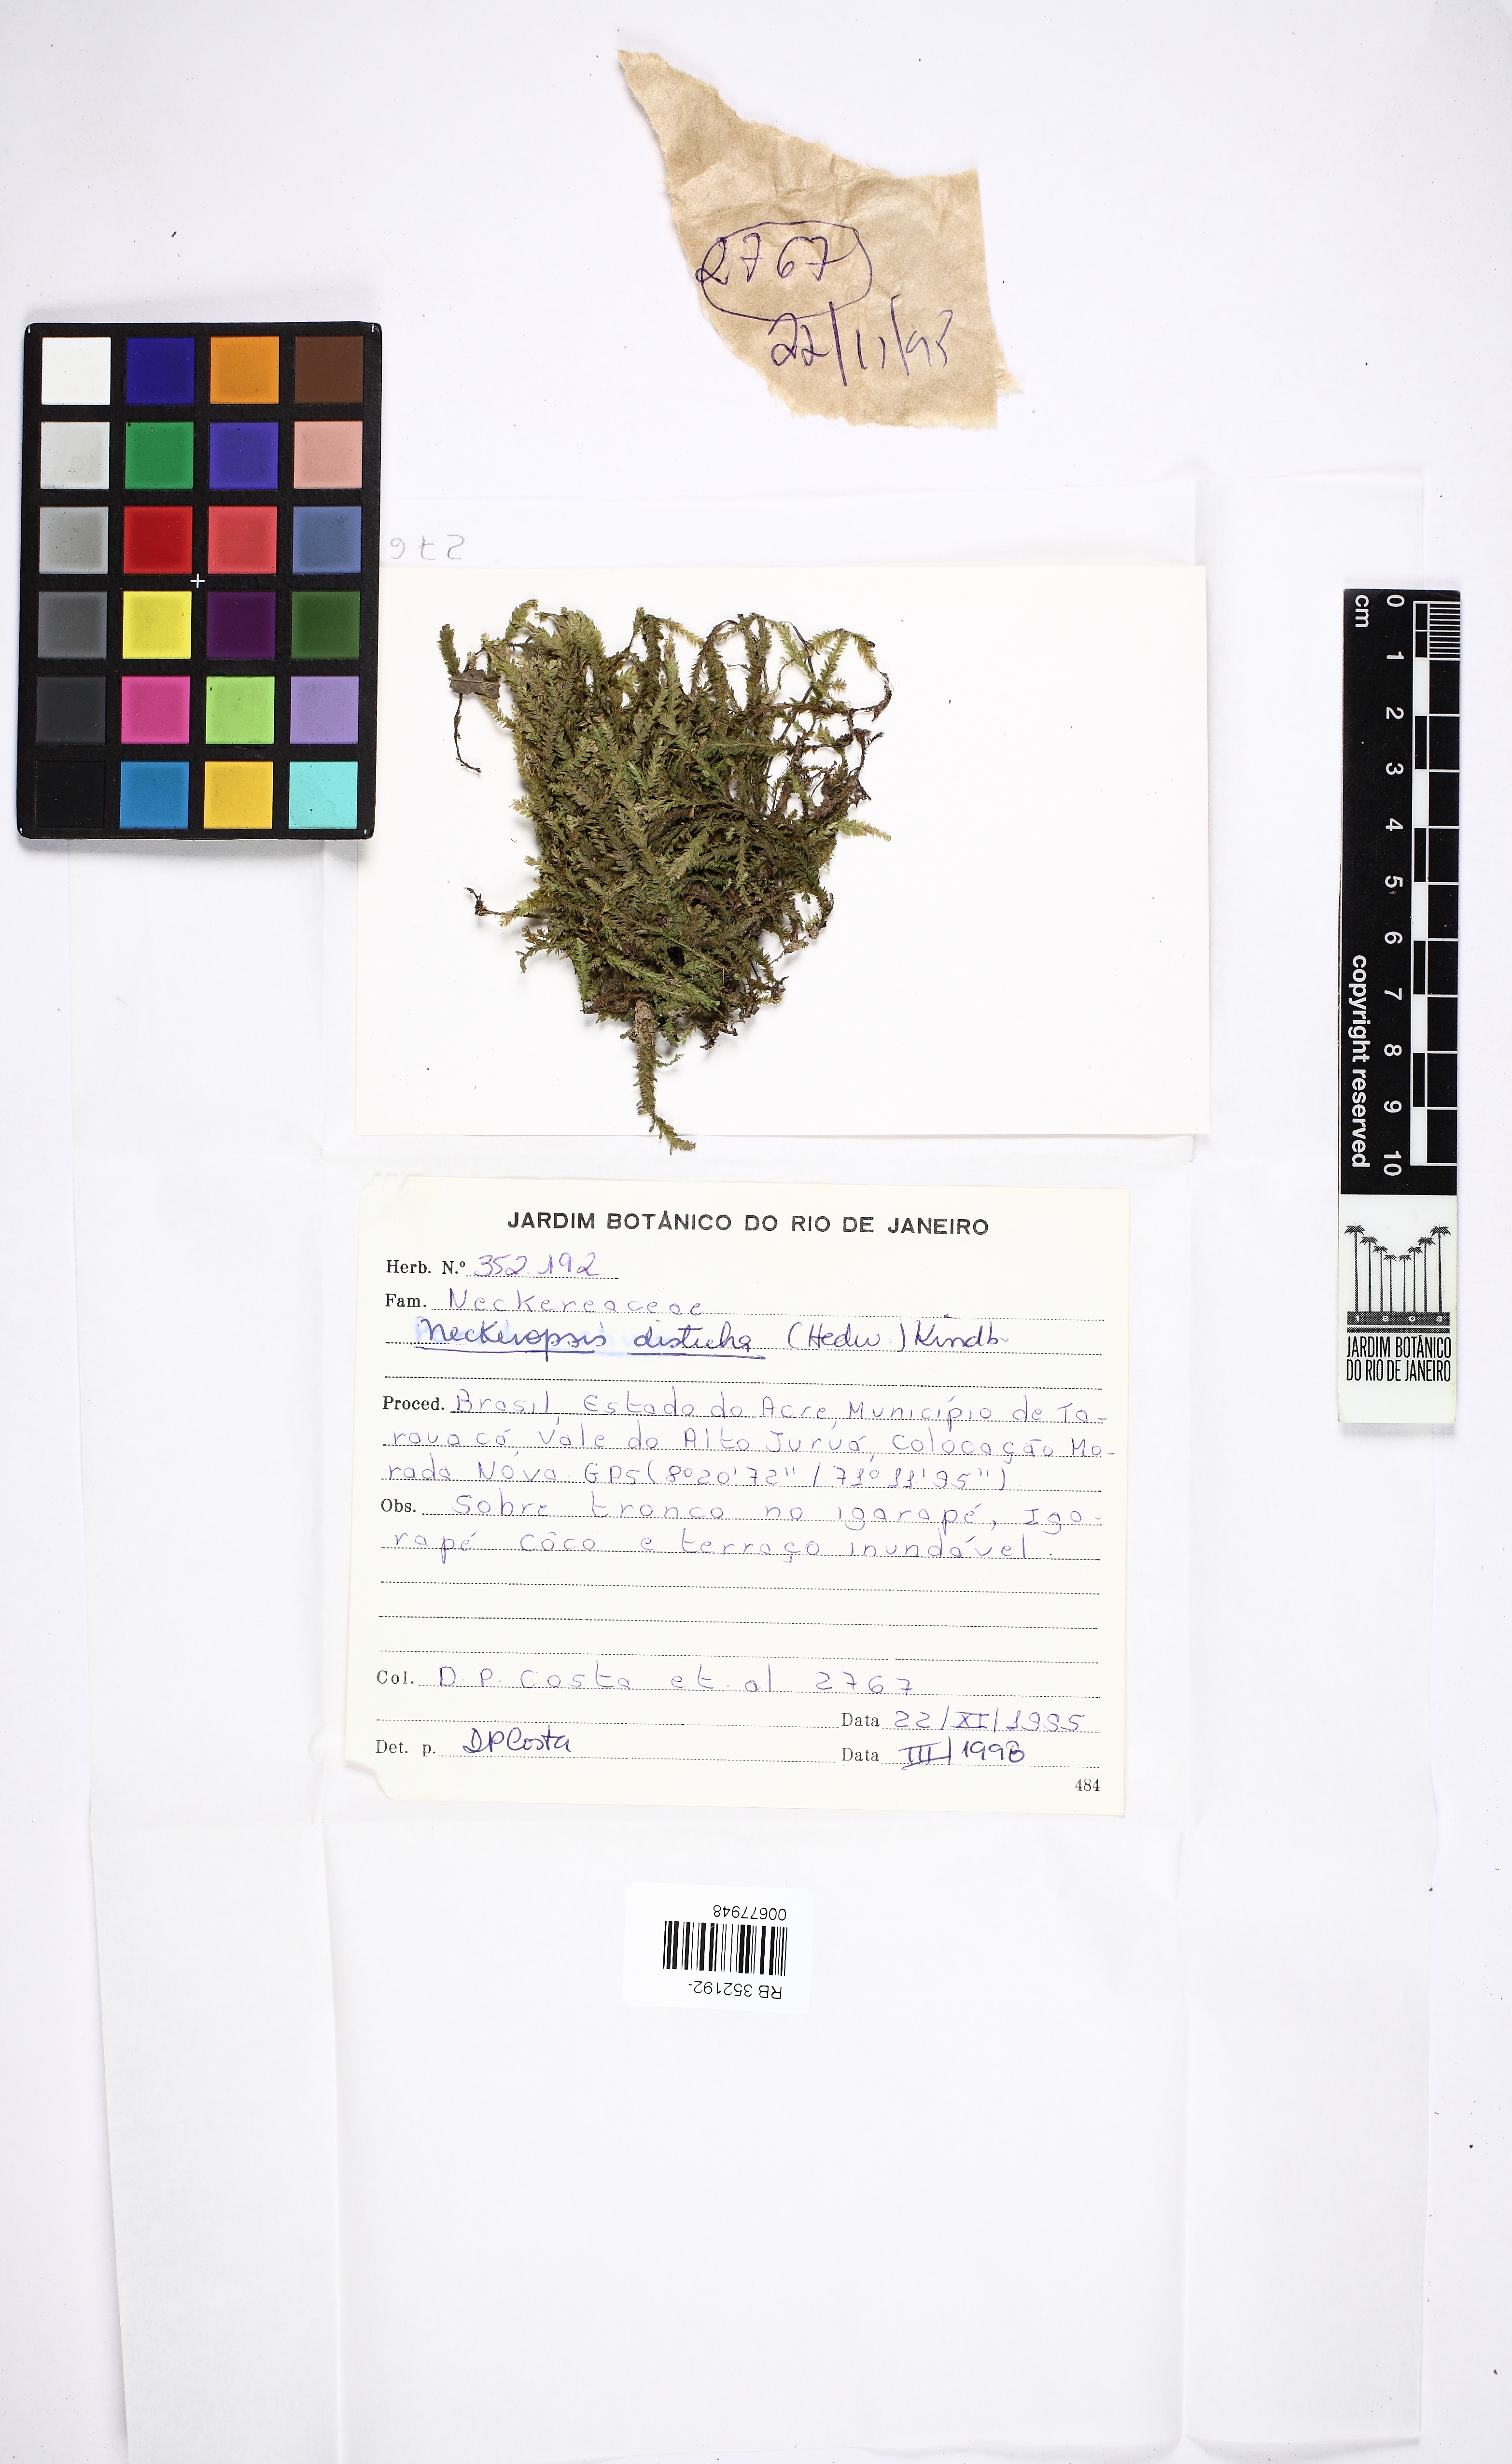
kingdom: Plantae
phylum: Bryophyta
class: Bryopsida
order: Hypnales
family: Neckeraceae
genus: Neckeropsis
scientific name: Neckeropsis disticha
